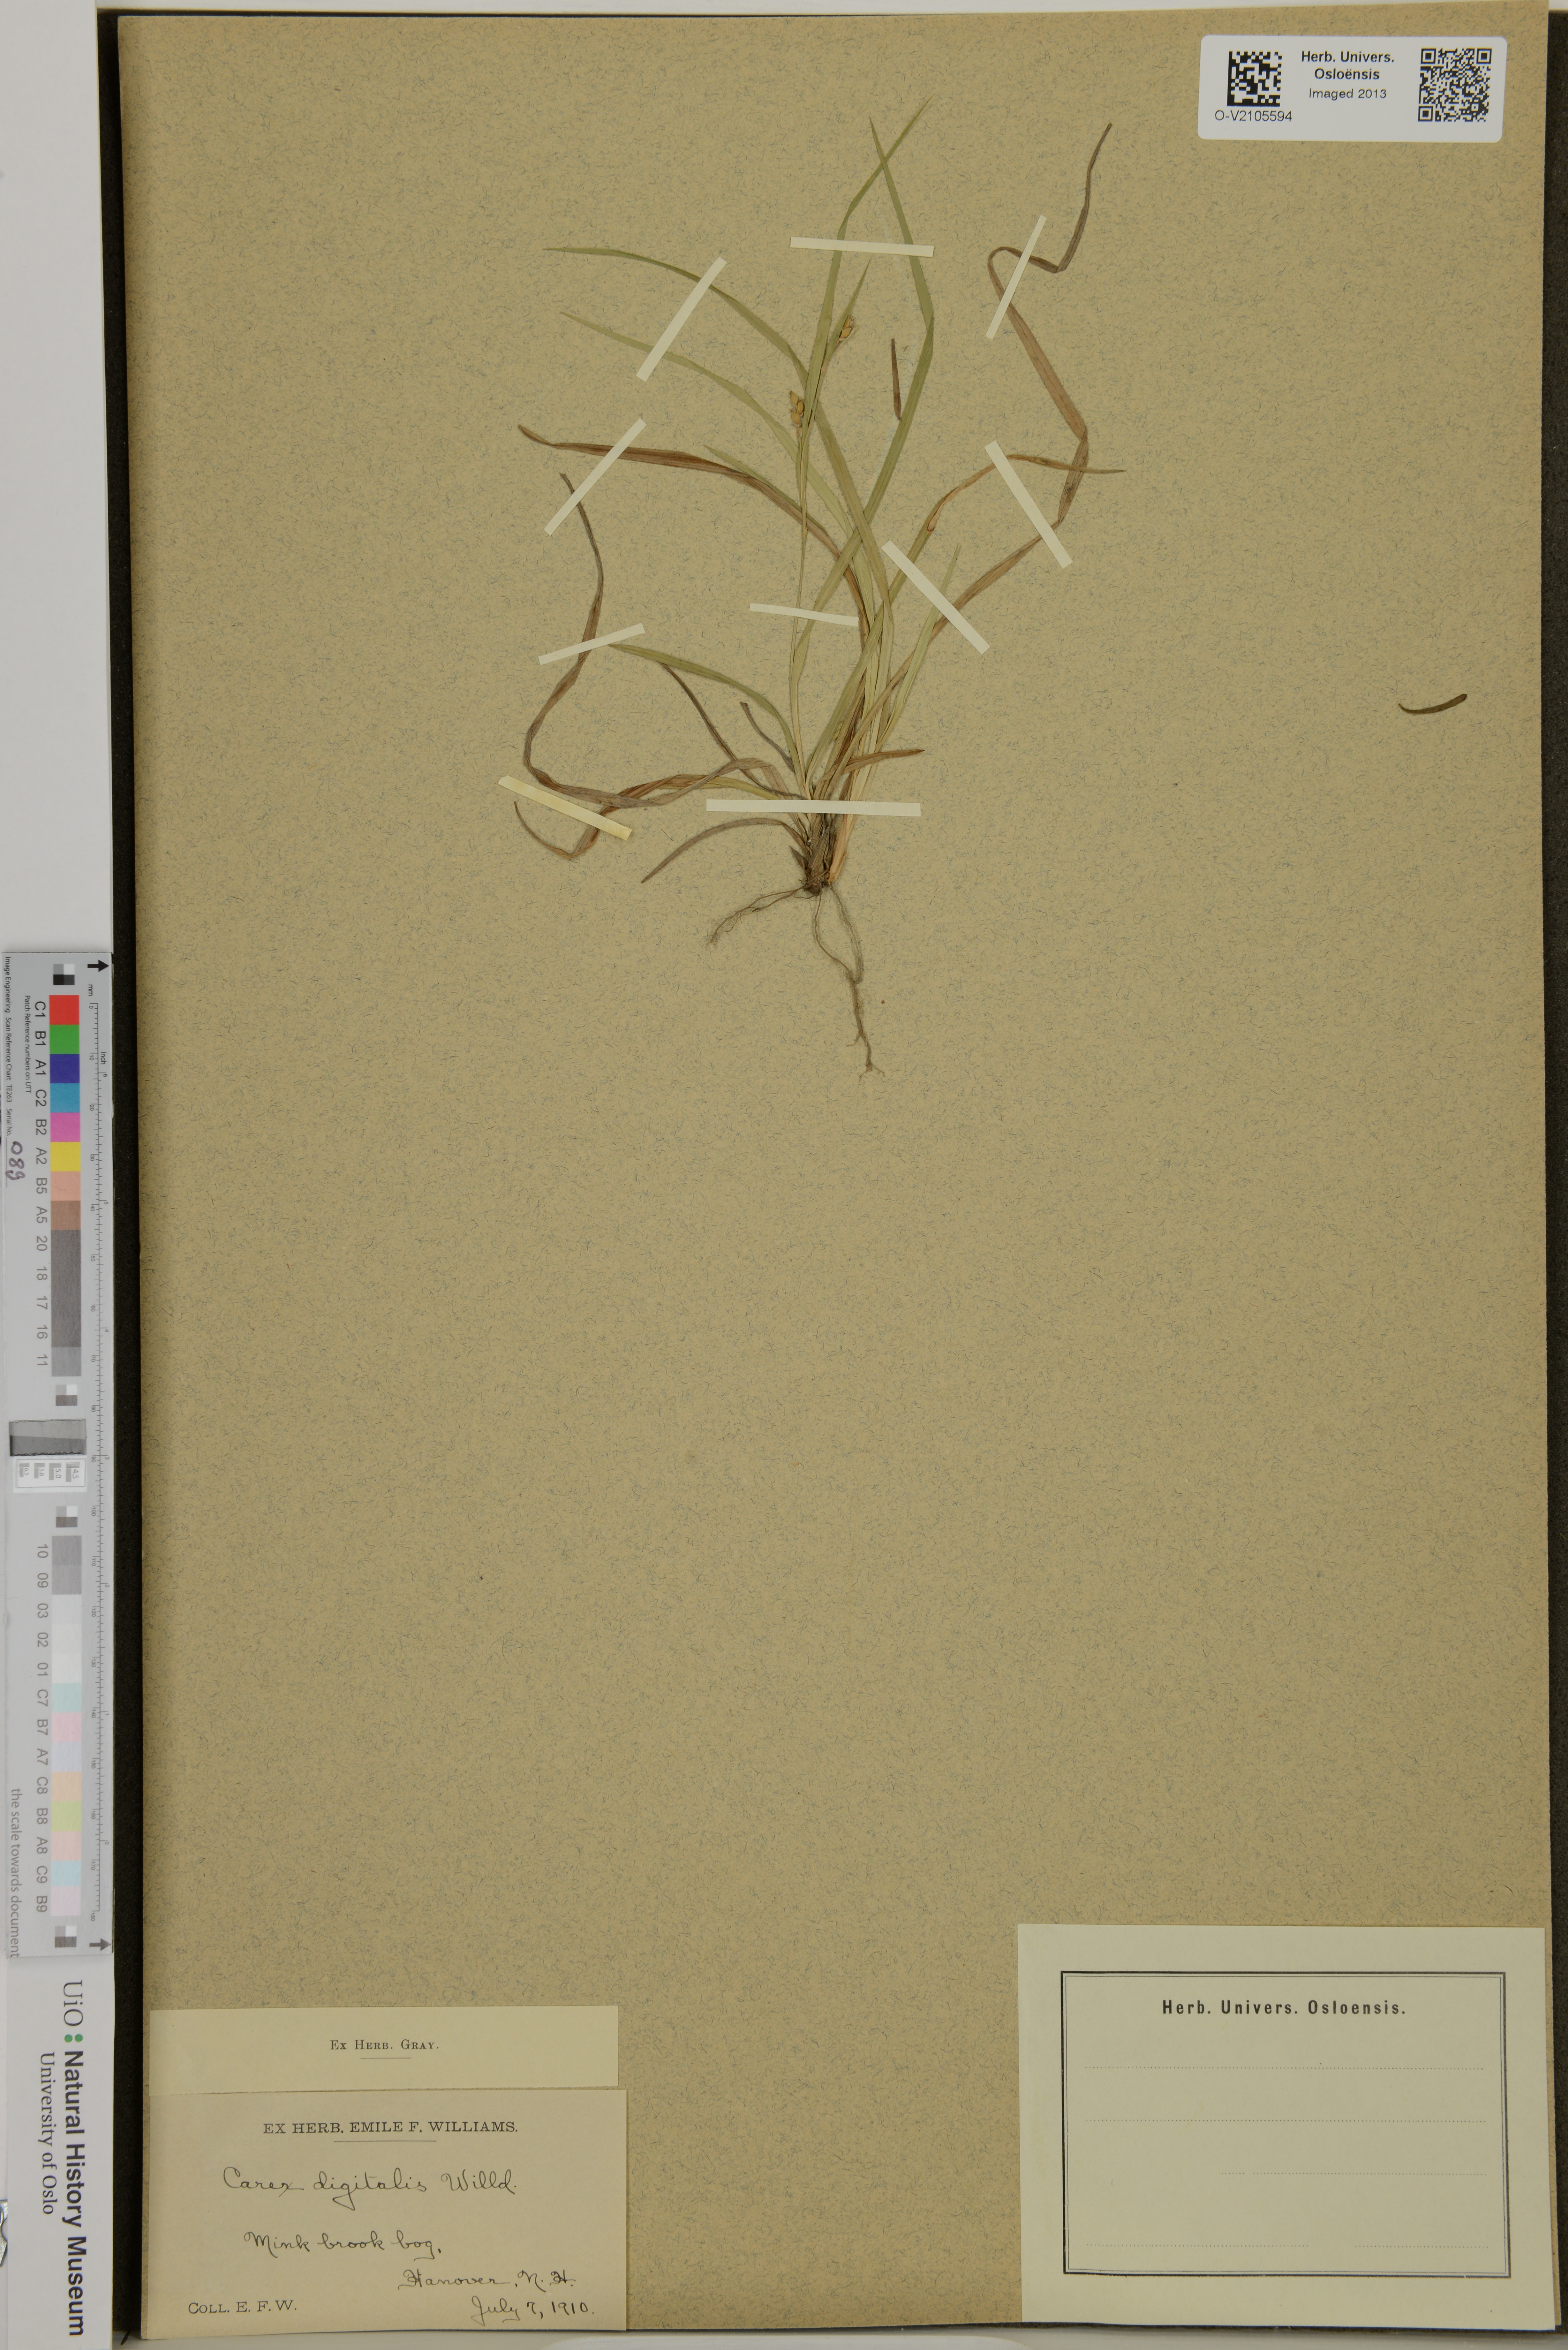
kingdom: Plantae
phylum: Tracheophyta
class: Liliopsida
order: Poales
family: Cyperaceae
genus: Carex
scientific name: Carex digitalis
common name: Slender wood sedge
